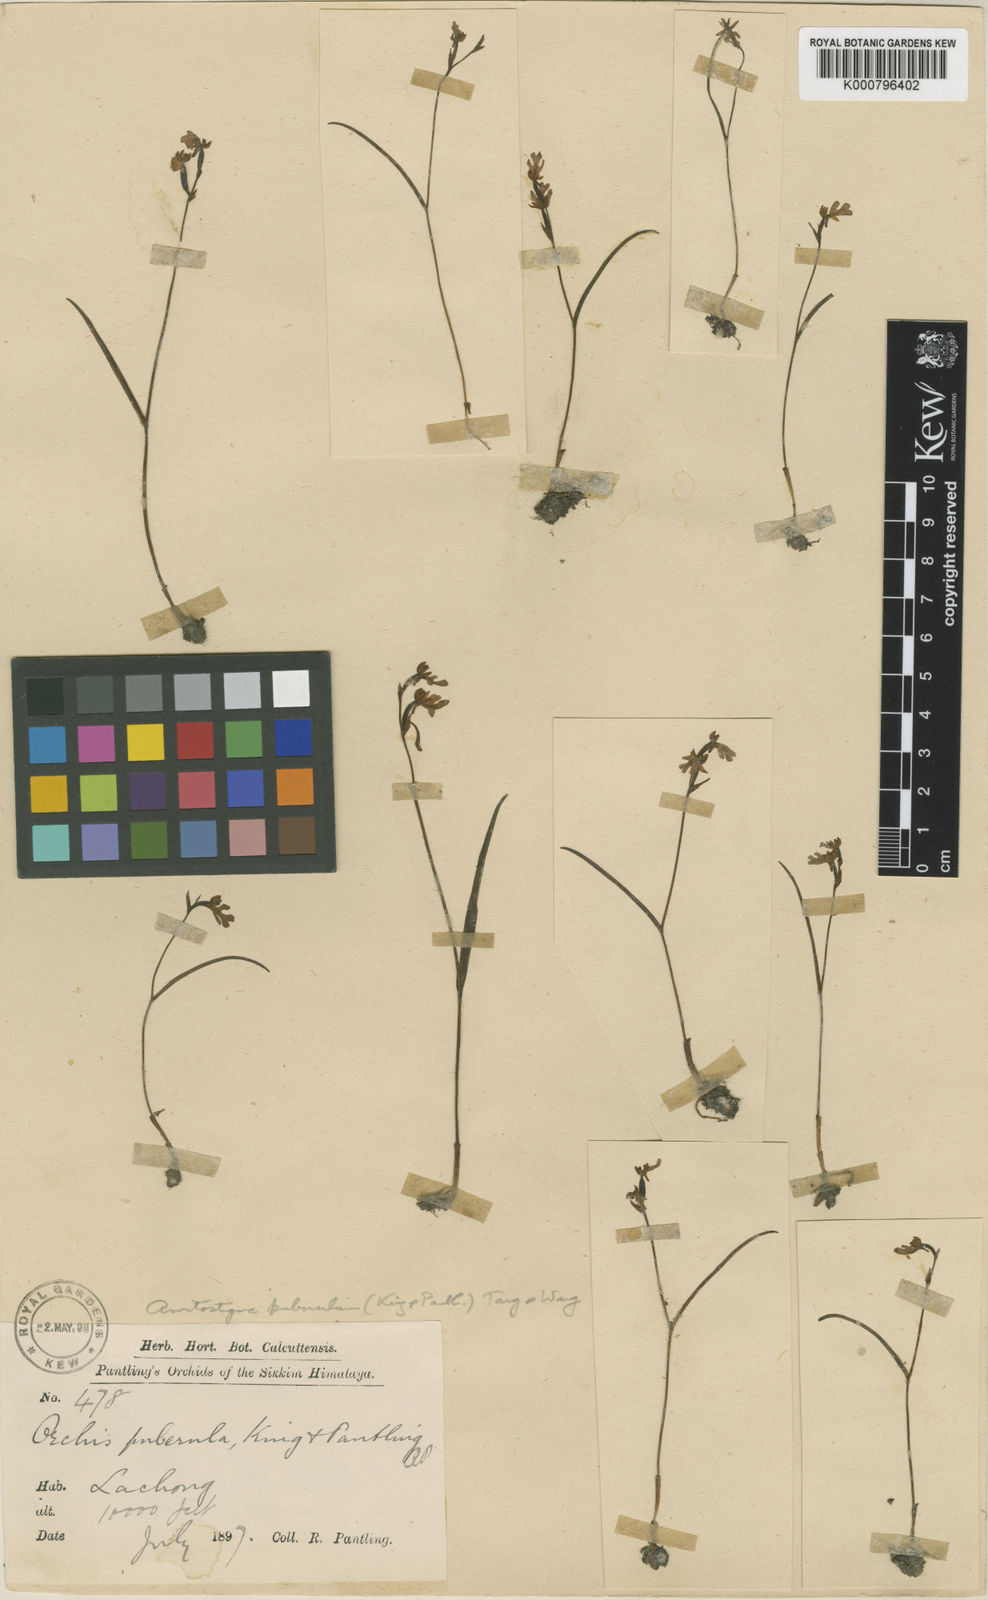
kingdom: Plantae
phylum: Tracheophyta
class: Liliopsida
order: Asparagales
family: Orchidaceae
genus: Hemipilia
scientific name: Hemipilia
